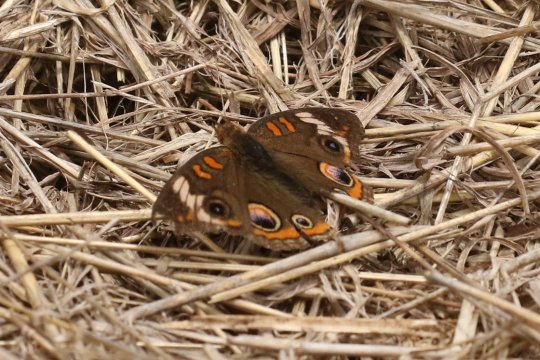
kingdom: Animalia
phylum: Arthropoda
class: Insecta
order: Lepidoptera
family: Nymphalidae
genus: Junonia
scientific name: Junonia coenia
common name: Common Buckeye
